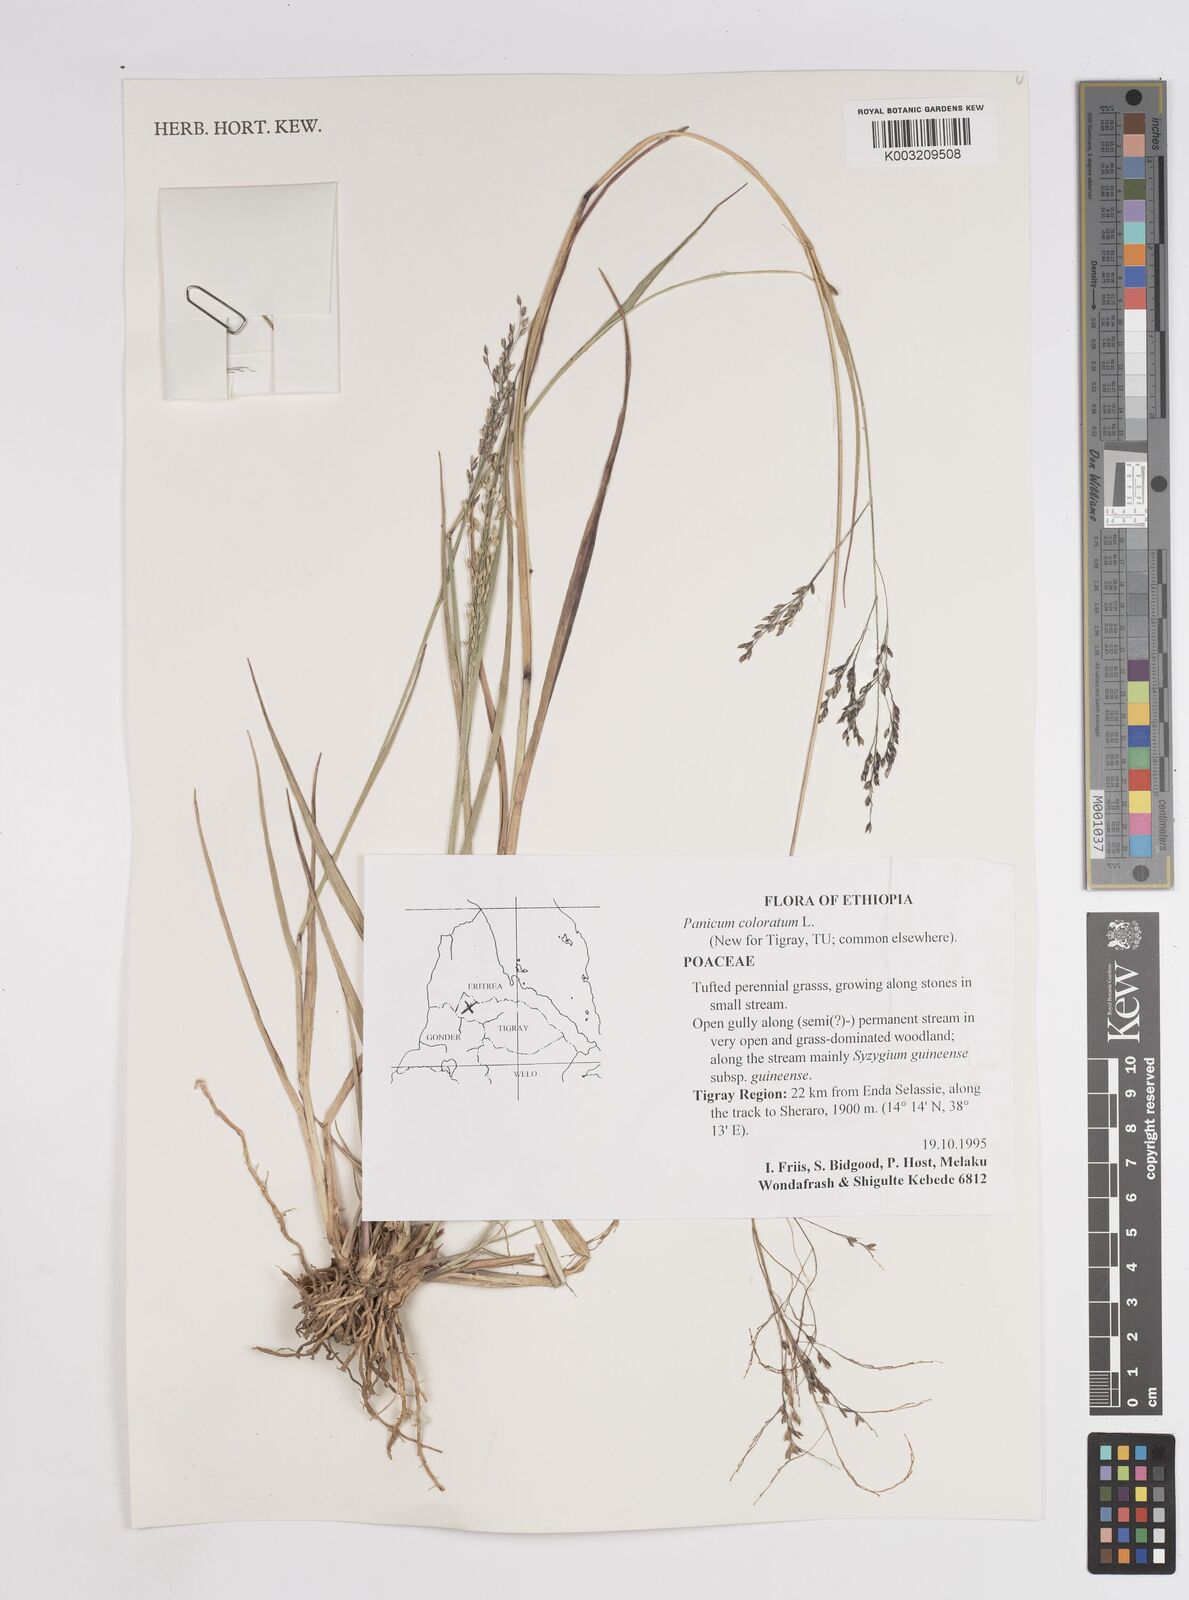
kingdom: Plantae
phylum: Tracheophyta
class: Liliopsida
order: Poales
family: Poaceae
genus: Tricholaena
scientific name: Tricholaena monachne
